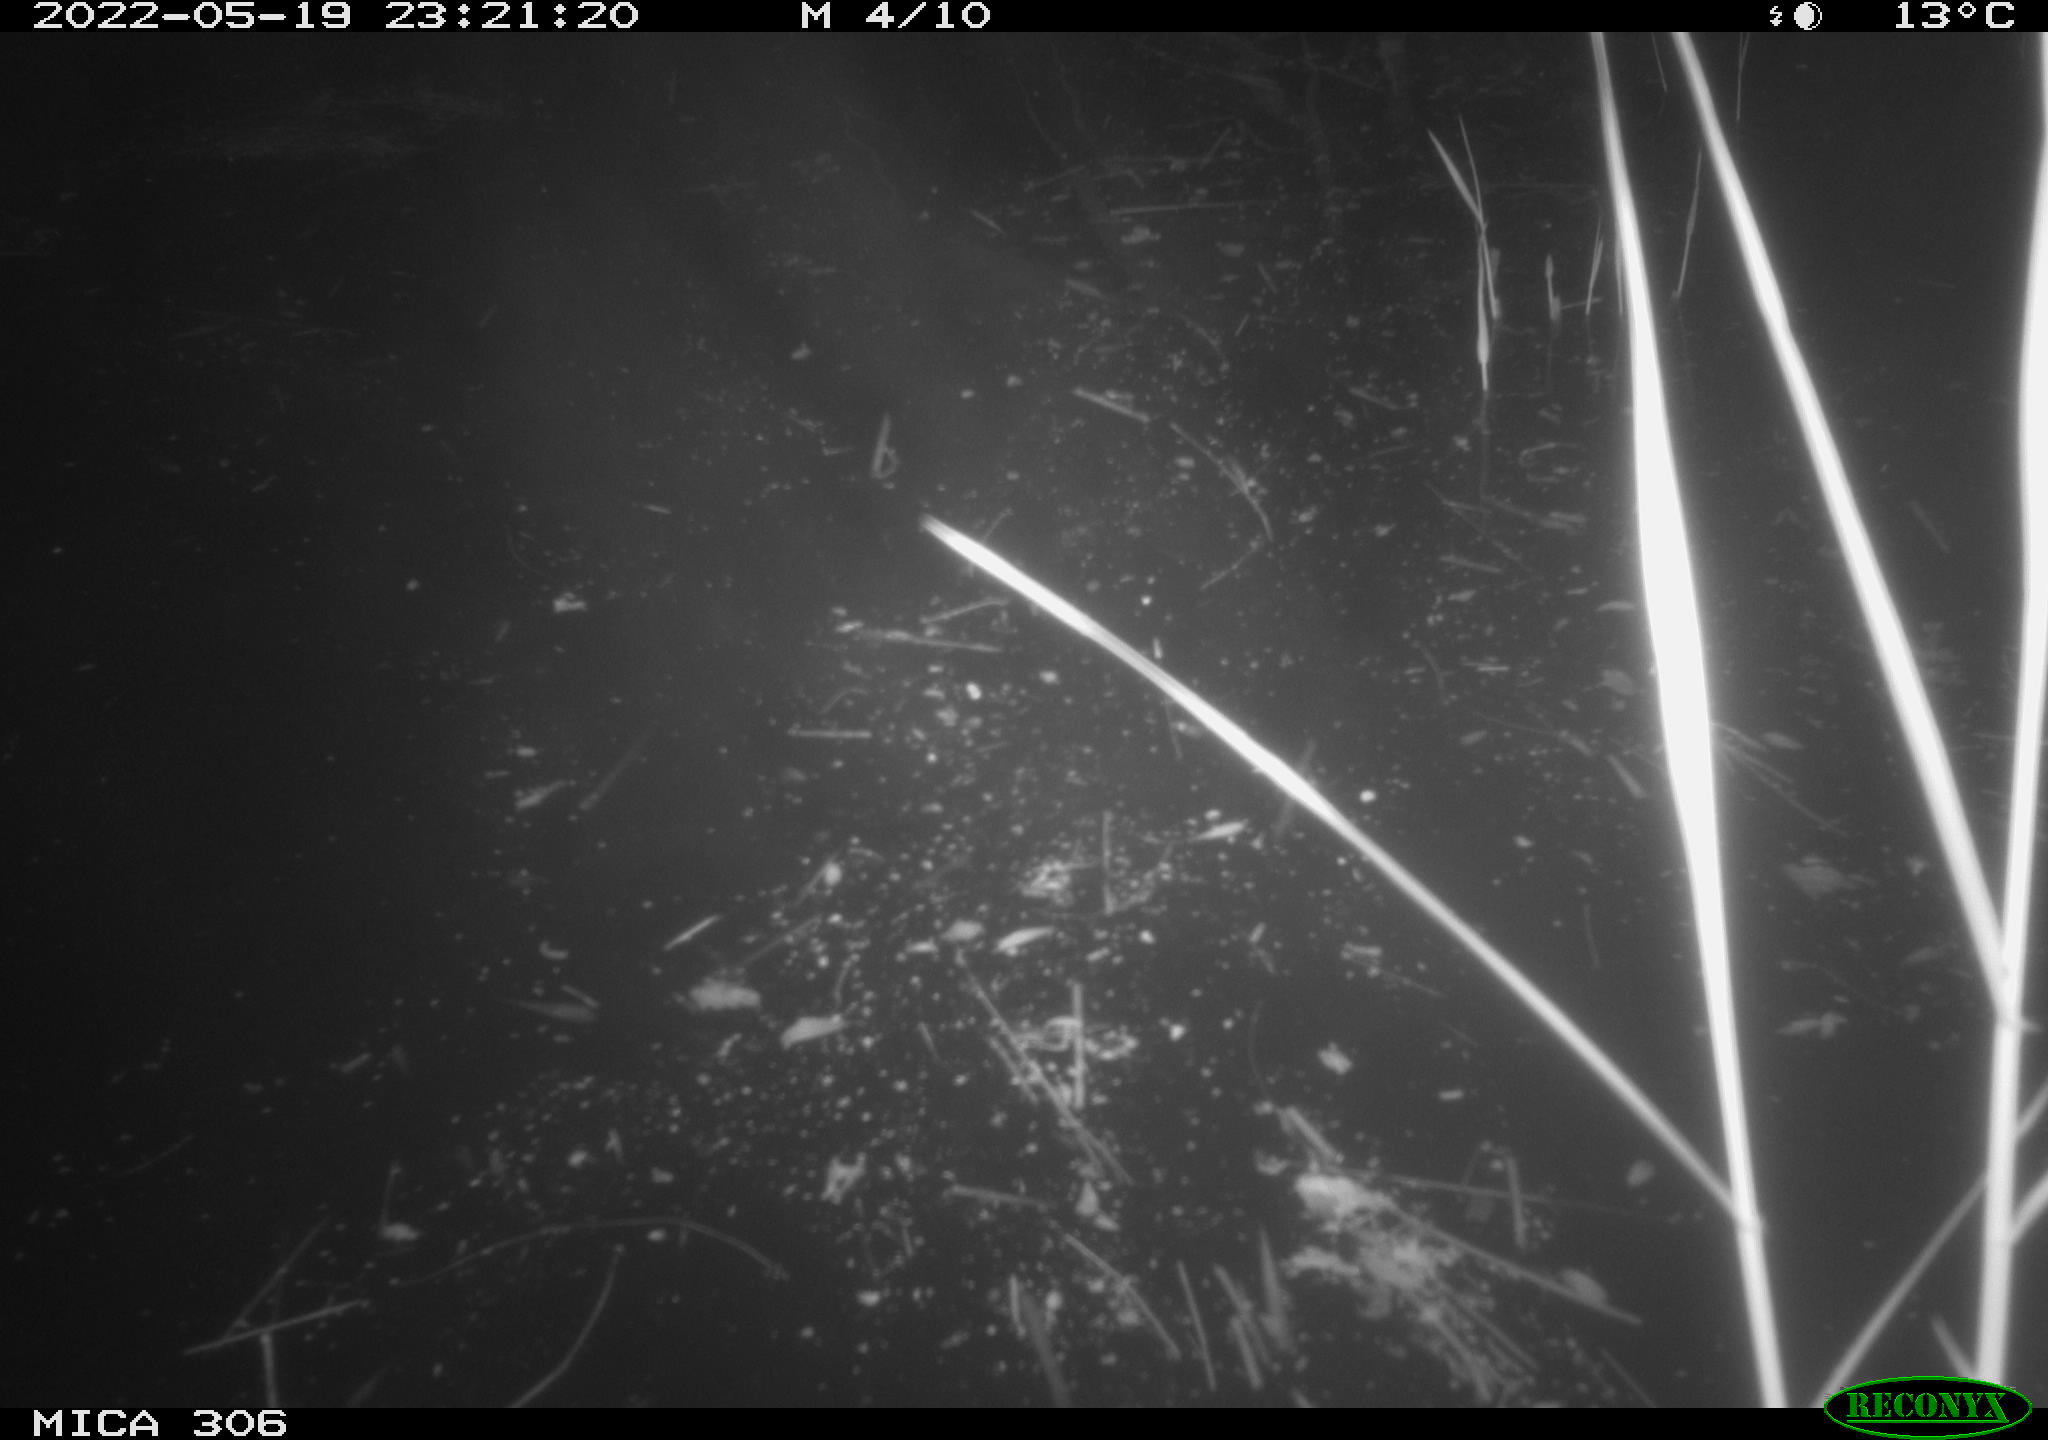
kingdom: Animalia
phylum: Chordata
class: Mammalia
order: Rodentia
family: Muridae
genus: Rattus
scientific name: Rattus norvegicus
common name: Brown rat
